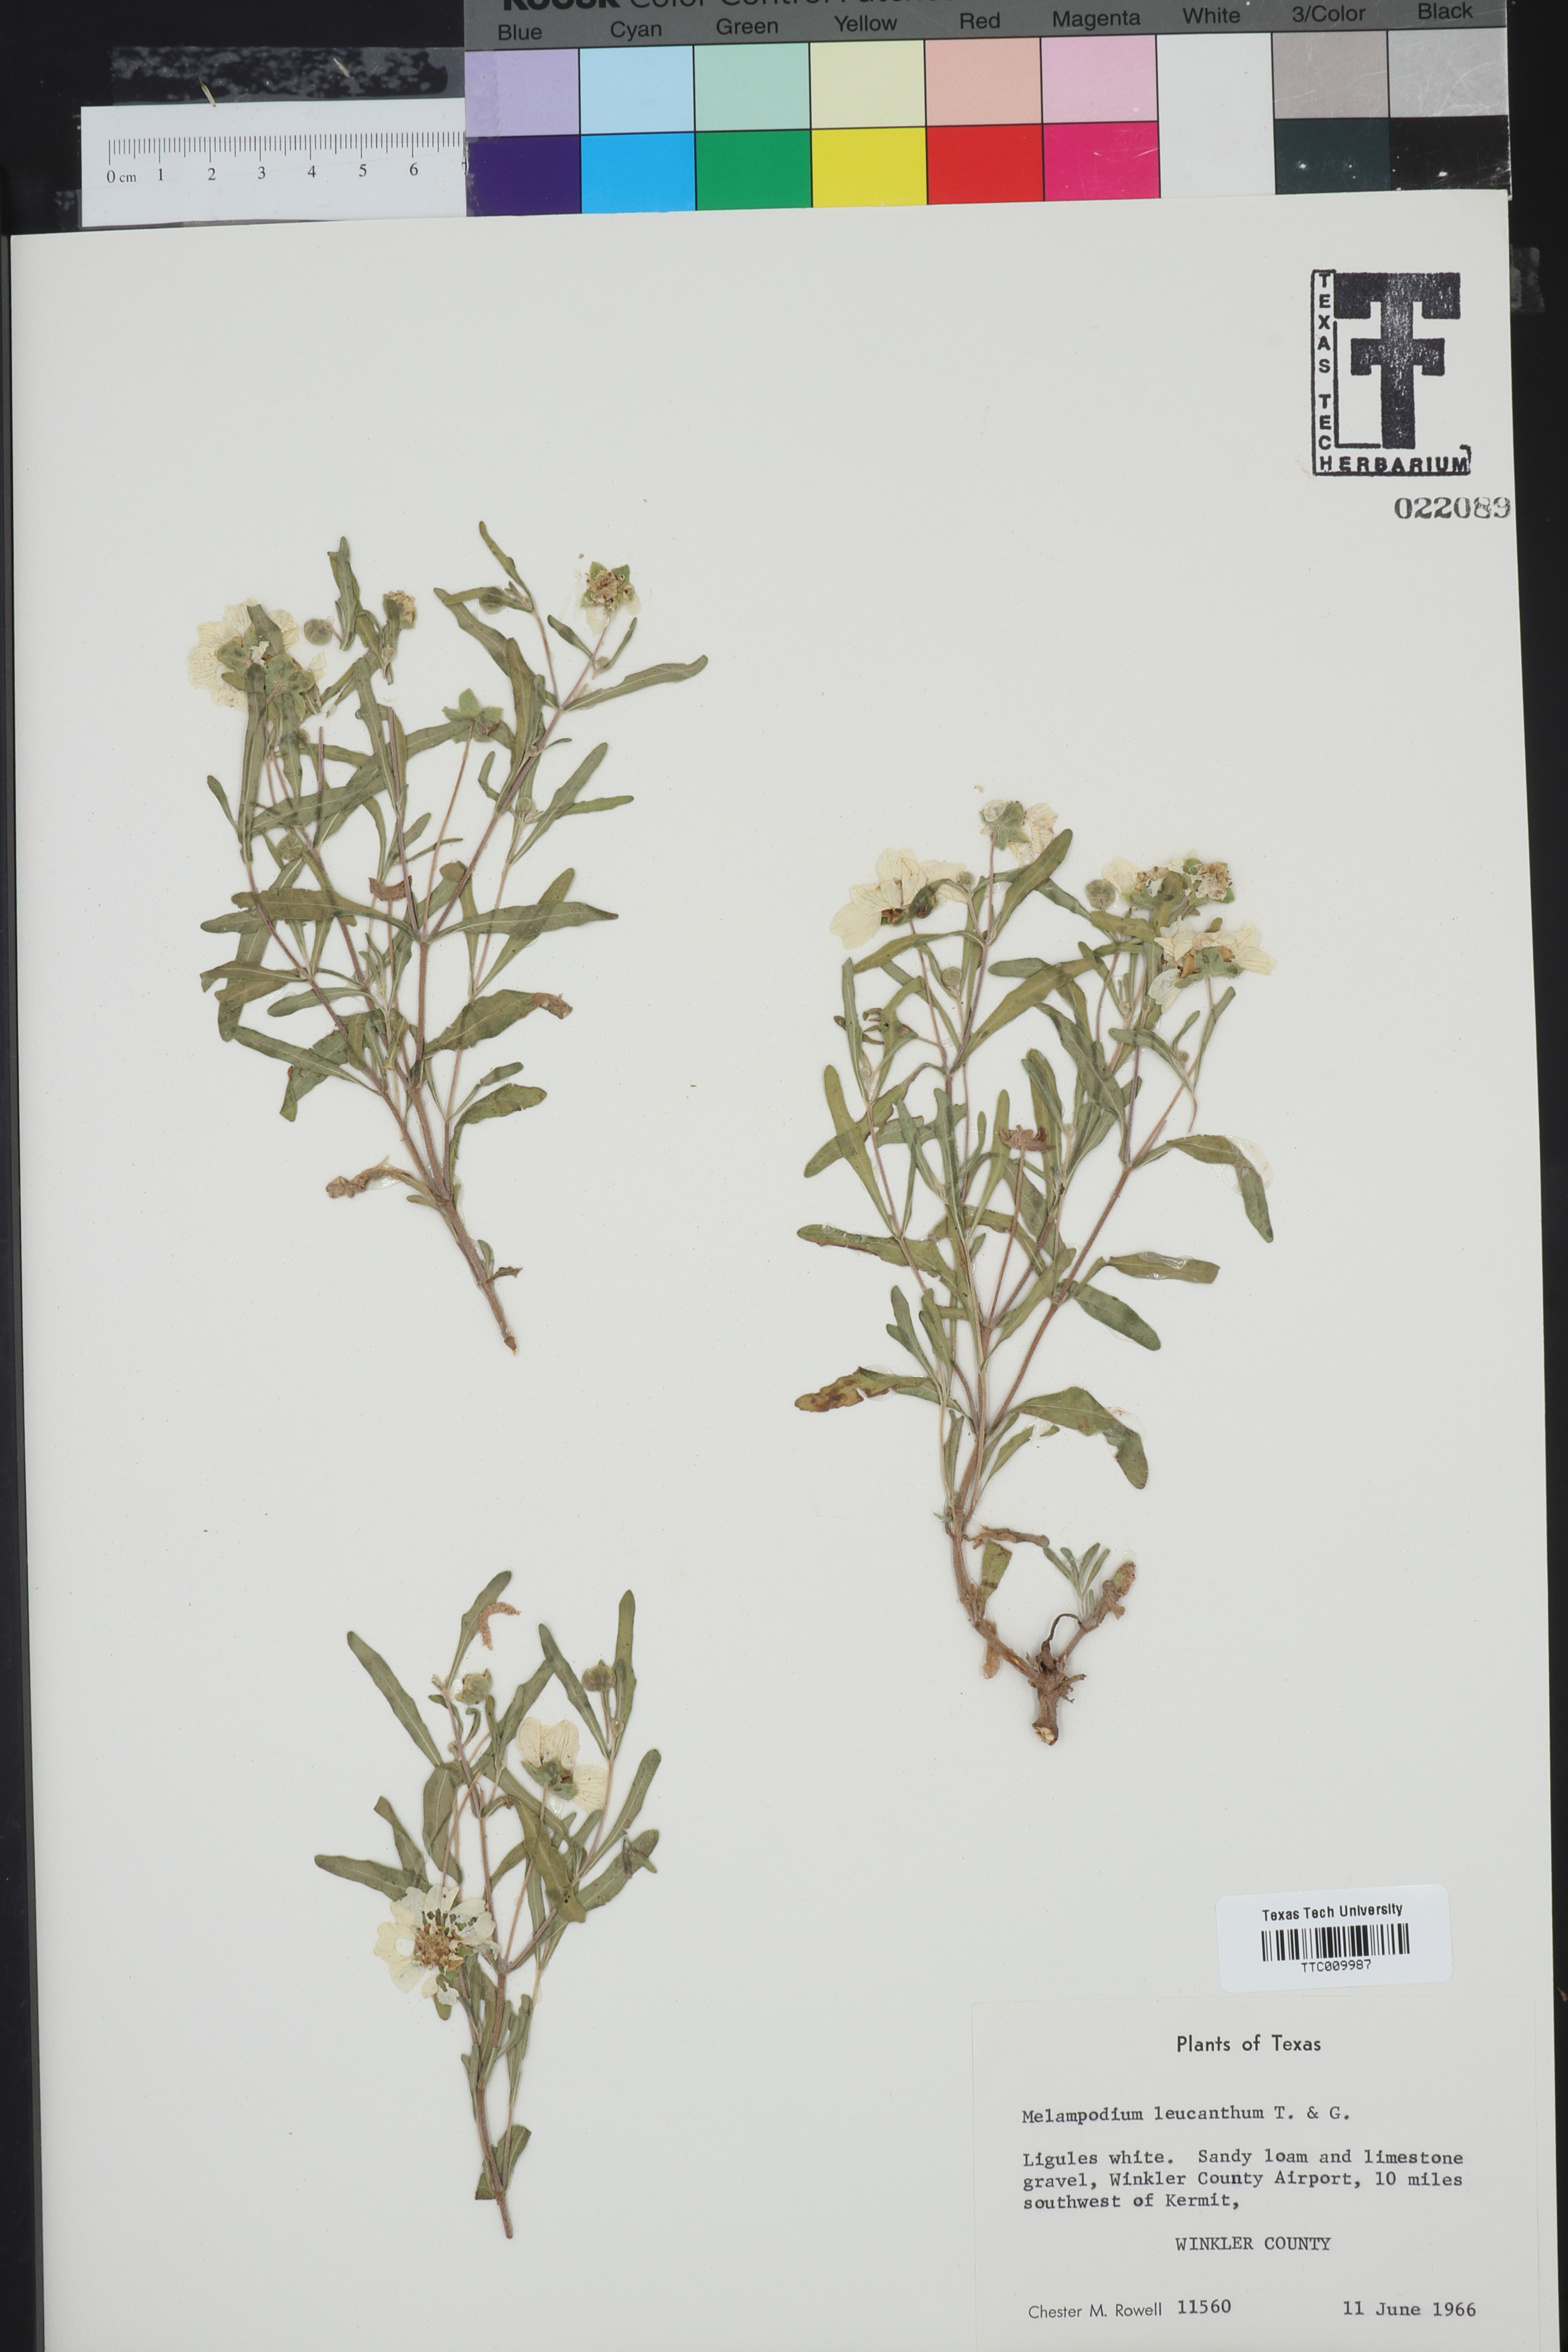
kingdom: Plantae
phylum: Tracheophyta
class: Magnoliopsida
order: Asterales
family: Asteraceae
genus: Melampodium
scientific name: Melampodium leucanthum
